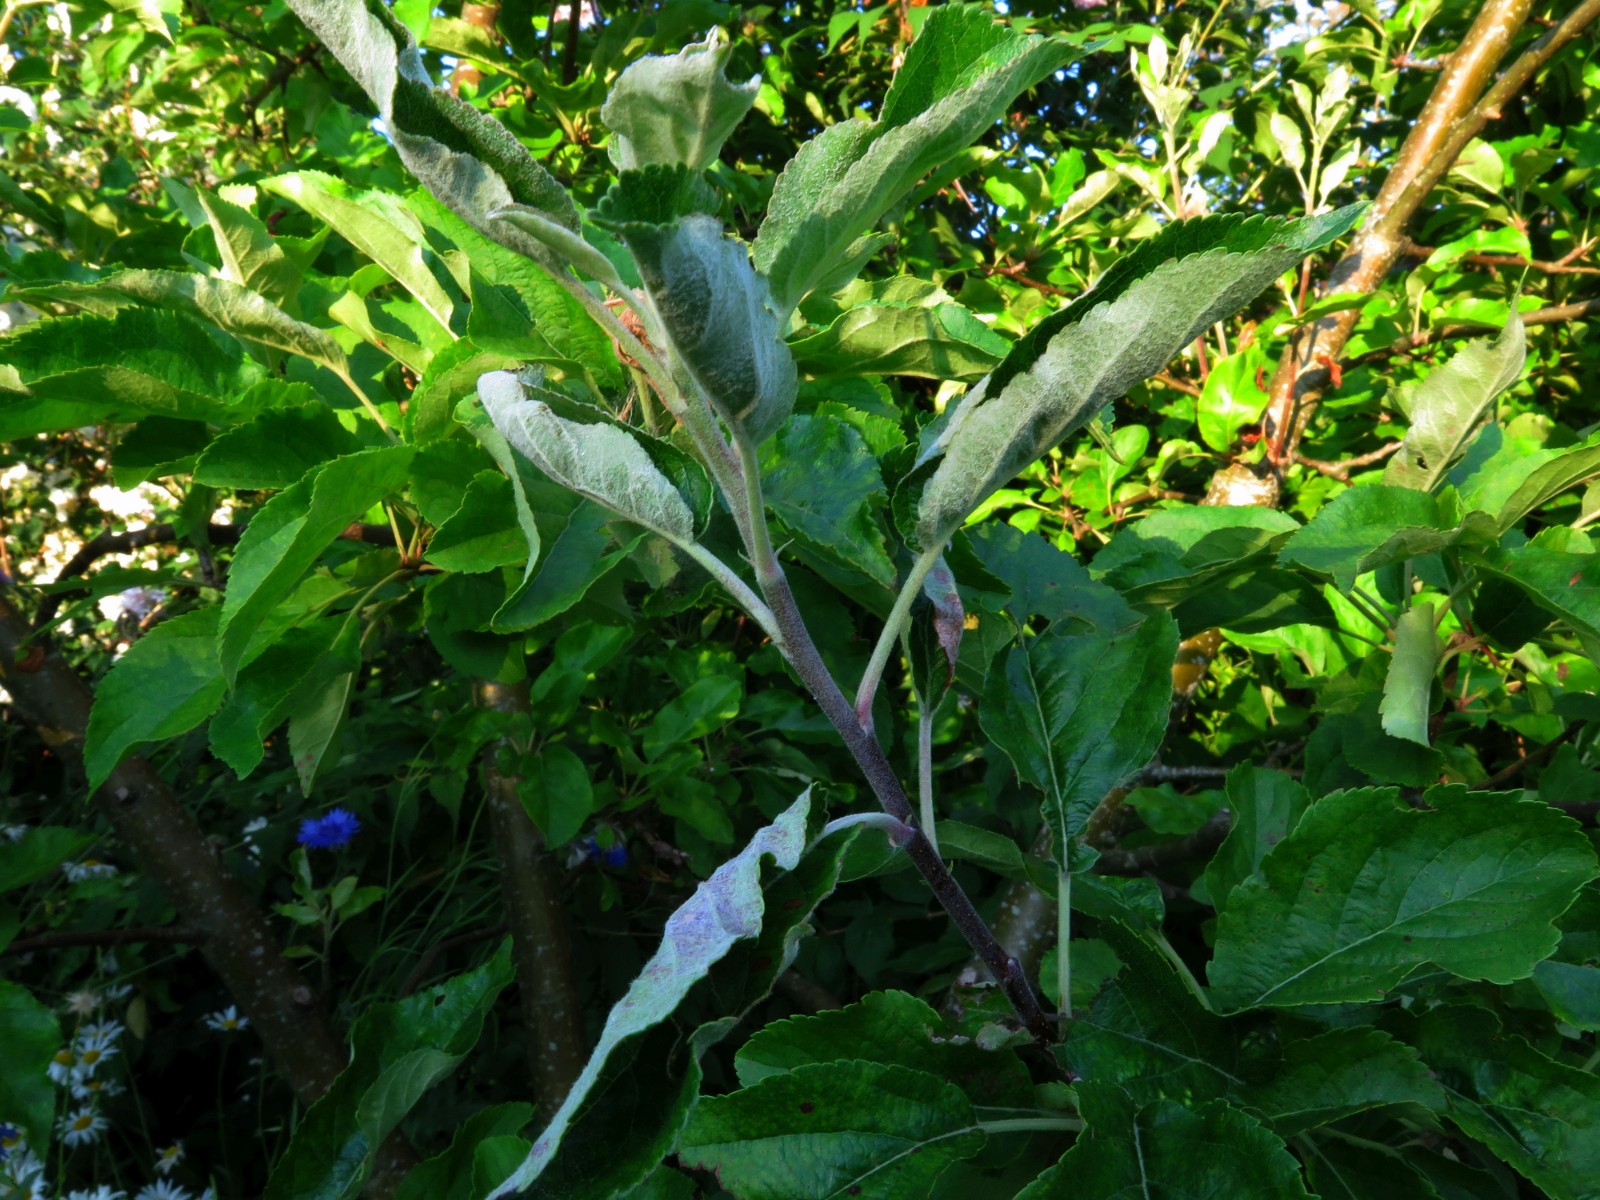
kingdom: Fungi
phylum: Ascomycota
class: Leotiomycetes
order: Helotiales
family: Erysiphaceae
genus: Podosphaera
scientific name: Podosphaera leucotricha
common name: æble-meldug
